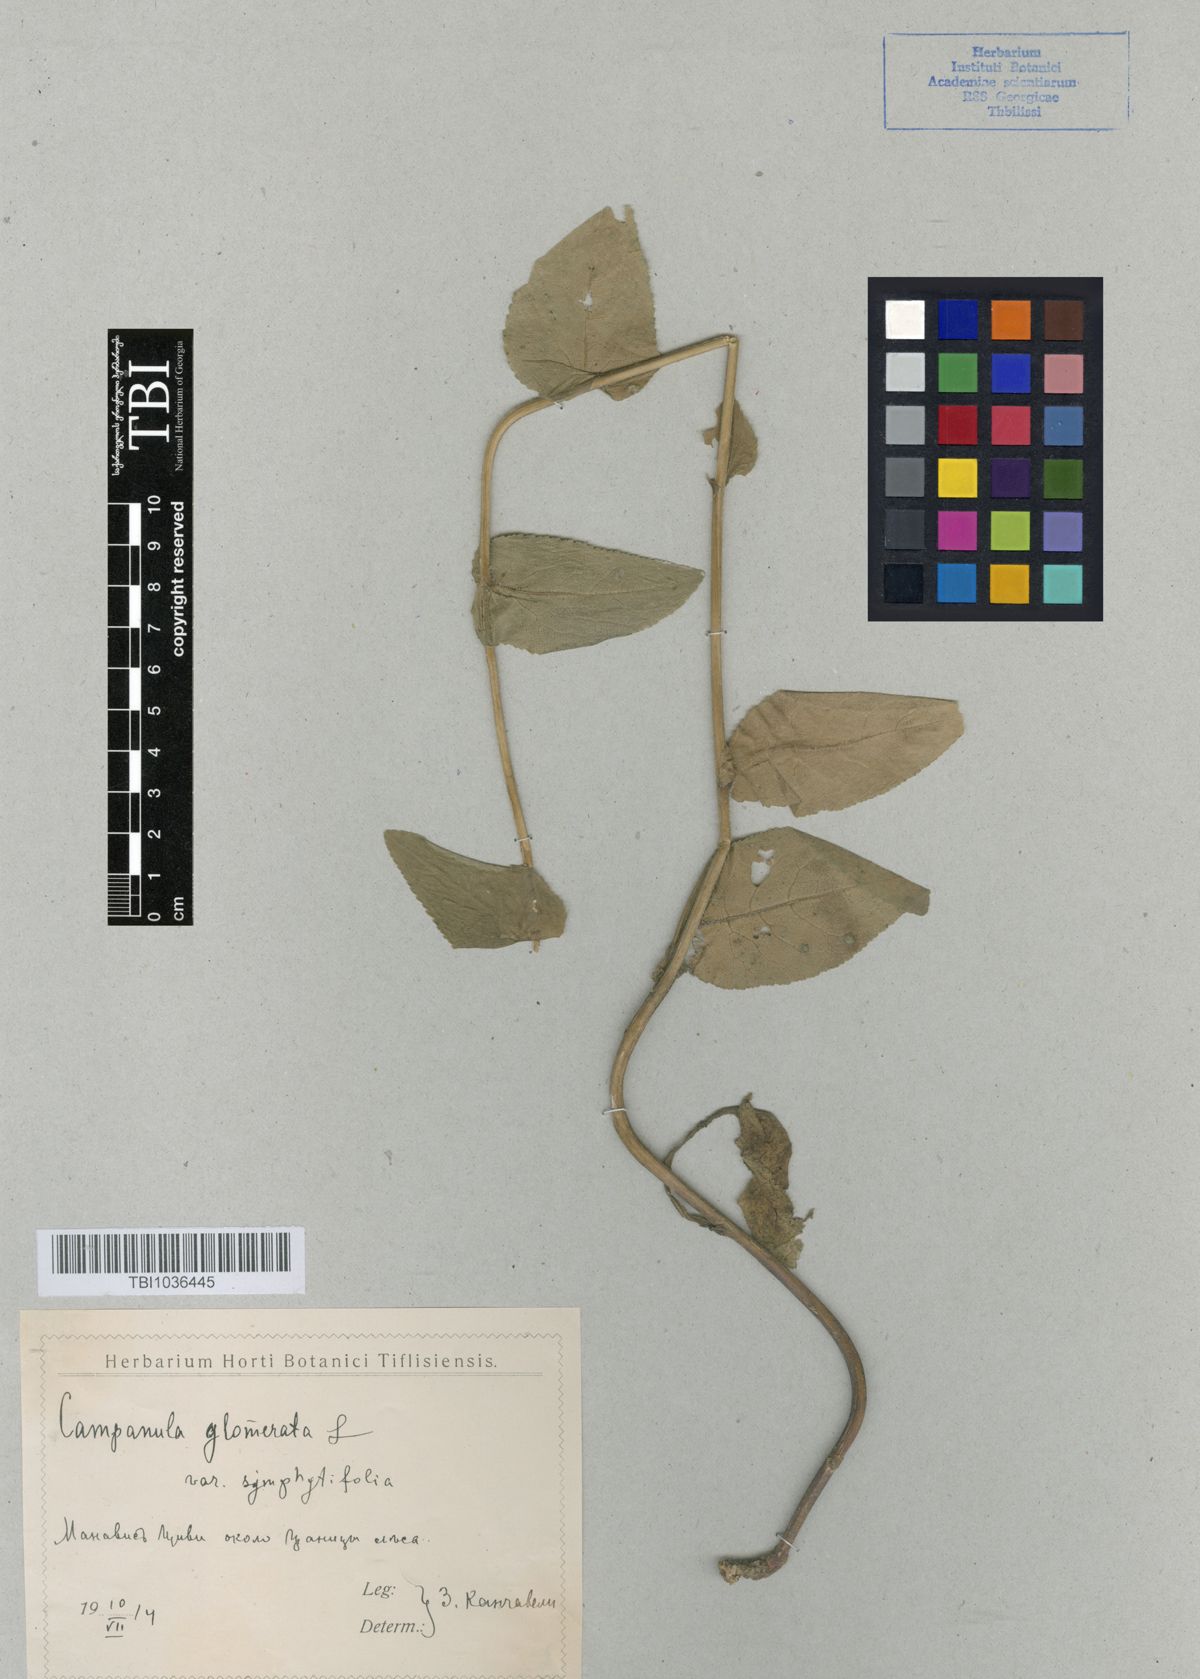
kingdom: Plantae
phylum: Tracheophyta
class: Magnoliopsida
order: Asterales
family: Campanulaceae
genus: Campanula
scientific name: Campanula glomerata
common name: Clustered bellflower
